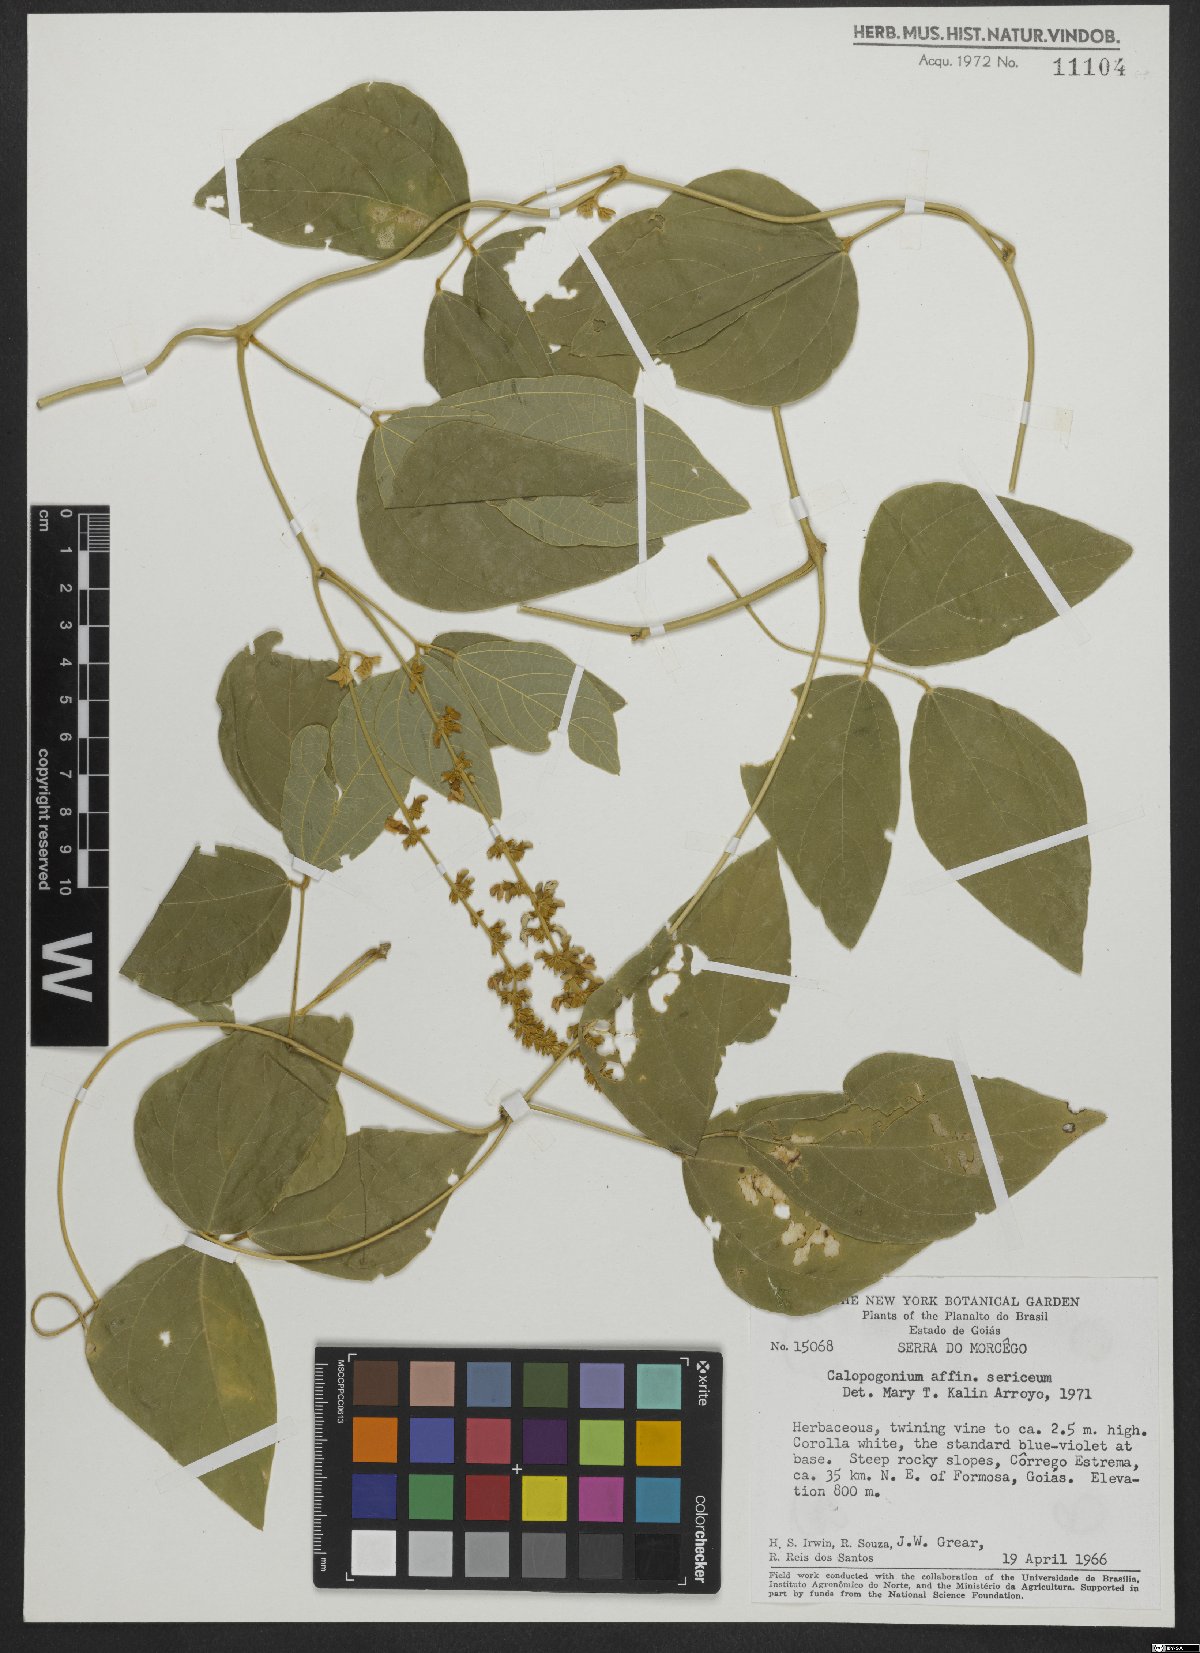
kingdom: Plantae
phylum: Tracheophyta
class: Magnoliopsida
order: Fabales
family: Fabaceae
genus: Calopogonium
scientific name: Calopogonium sericeum
